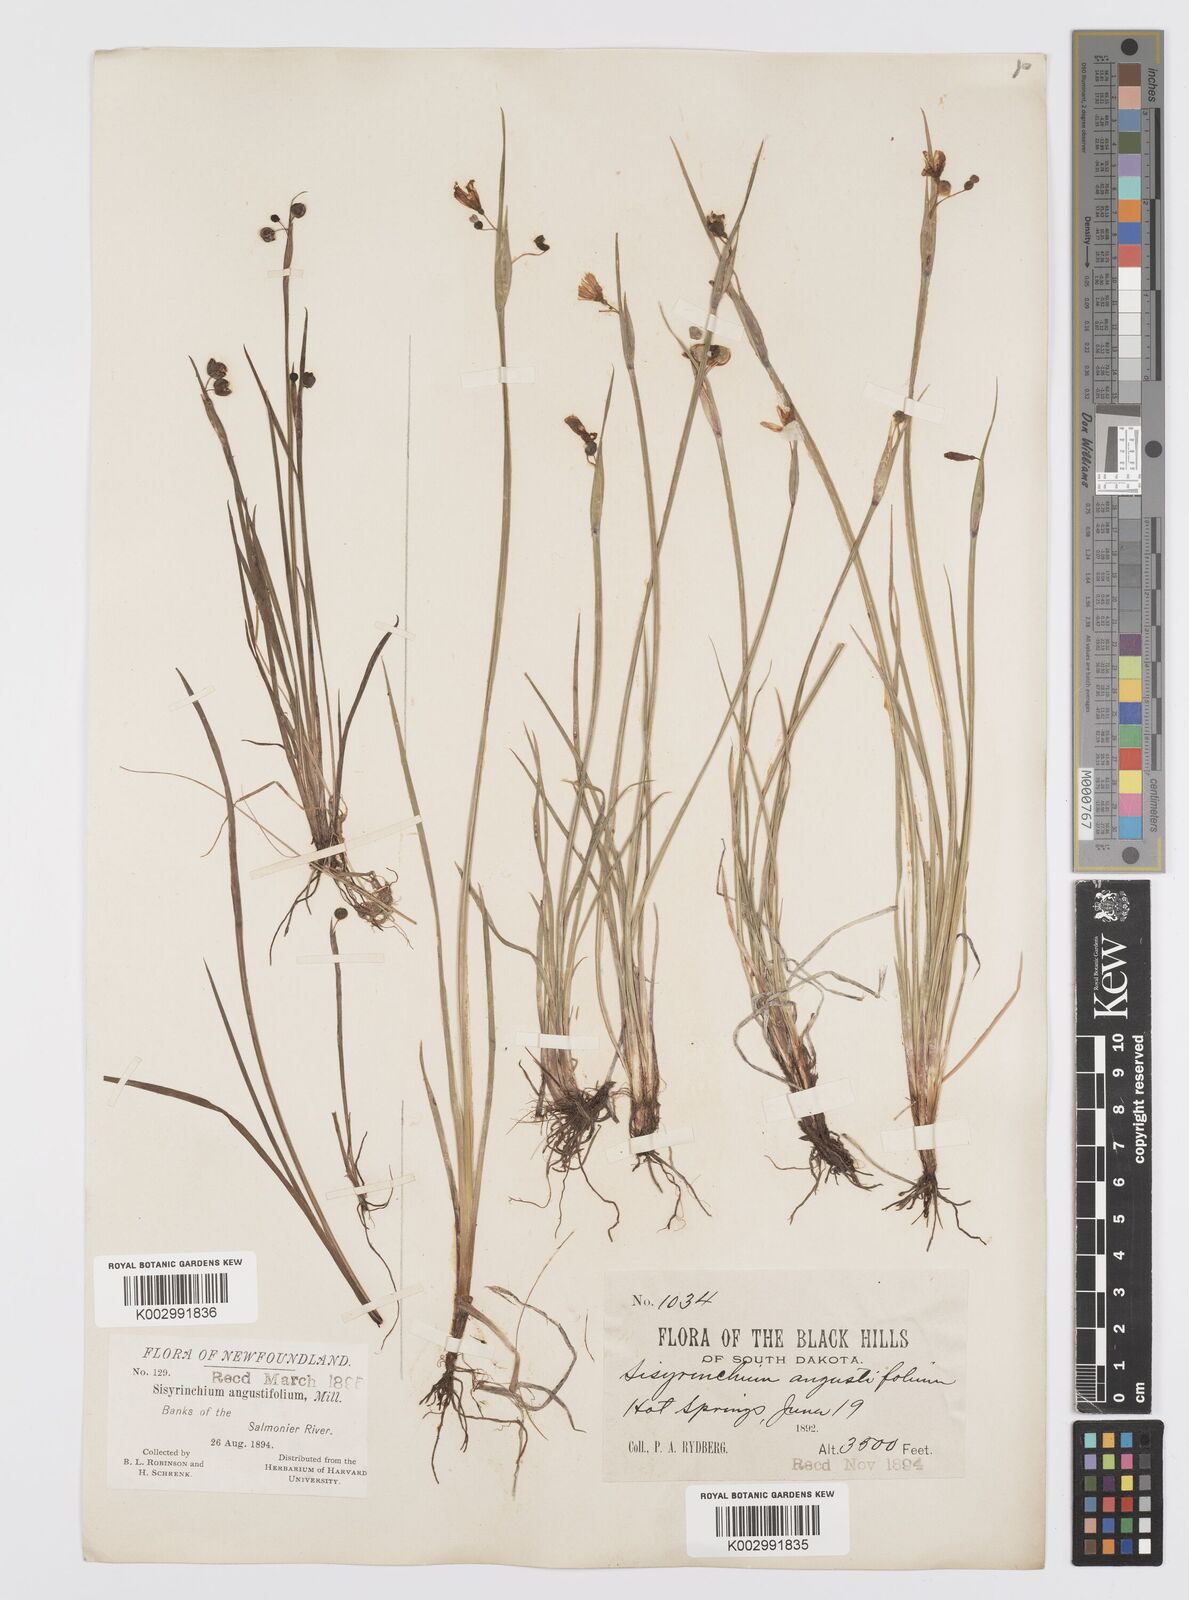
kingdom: Plantae
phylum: Tracheophyta
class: Liliopsida
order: Asparagales
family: Iridaceae
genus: Sisyrinchium
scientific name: Sisyrinchium bermudiana
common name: Blue-eyed-grass
